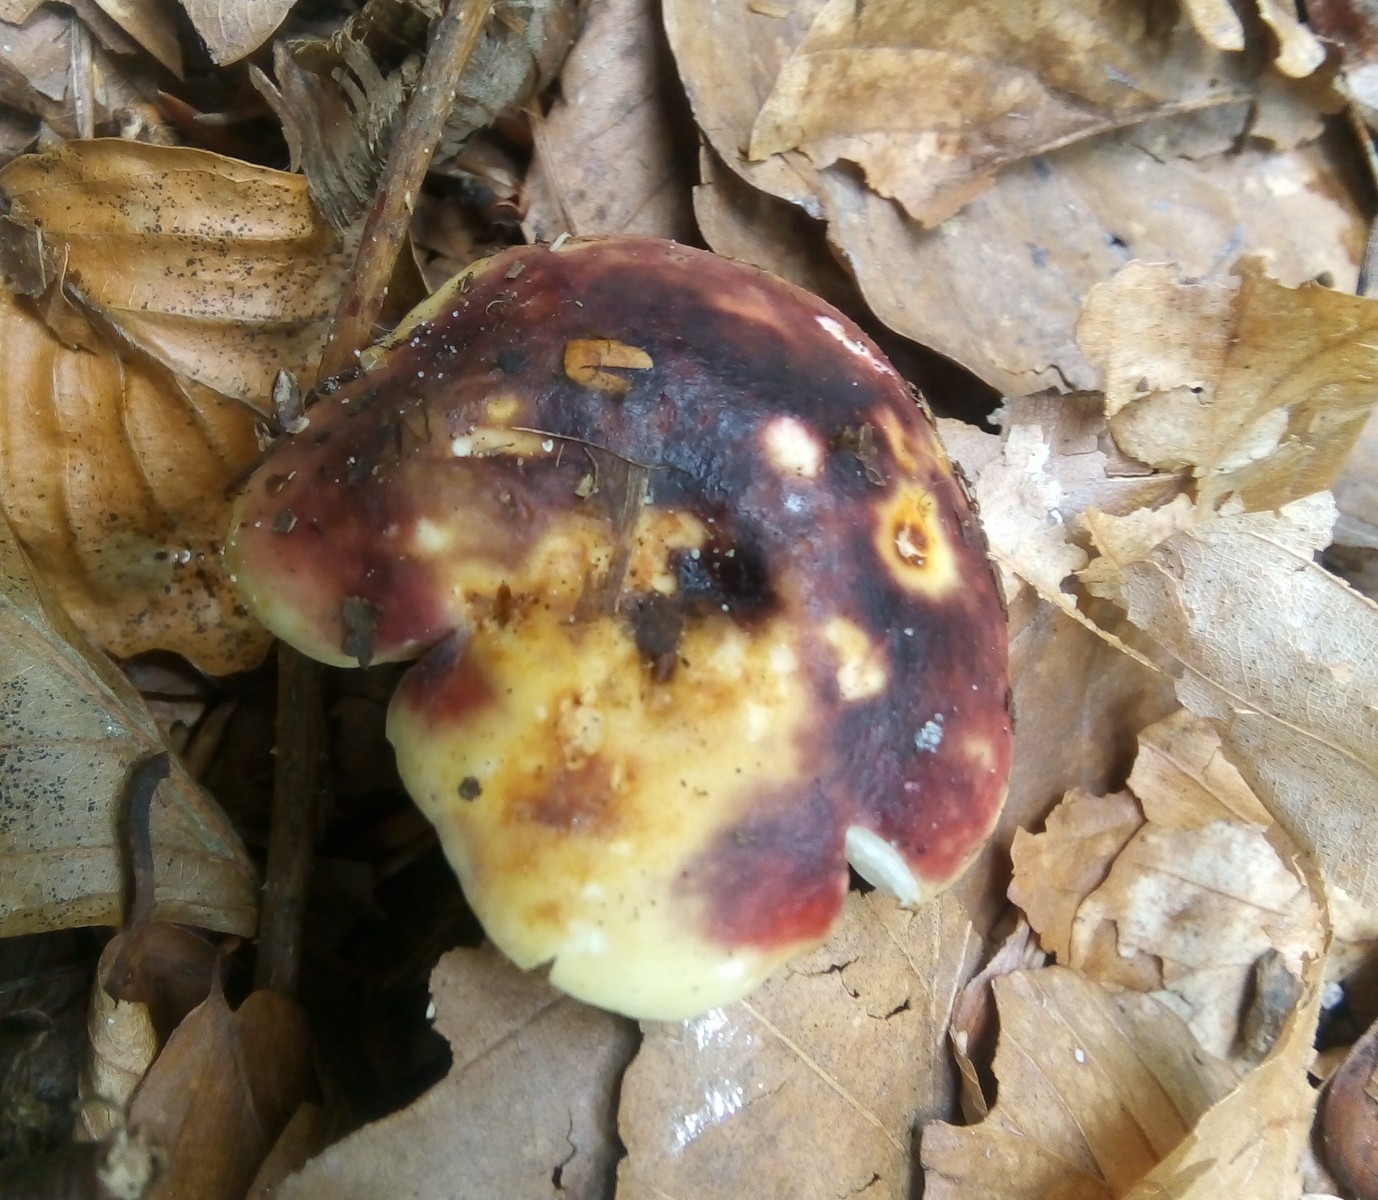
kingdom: Fungi
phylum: Basidiomycota
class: Agaricomycetes
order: Russulales
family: Russulaceae
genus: Russula
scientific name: Russula
